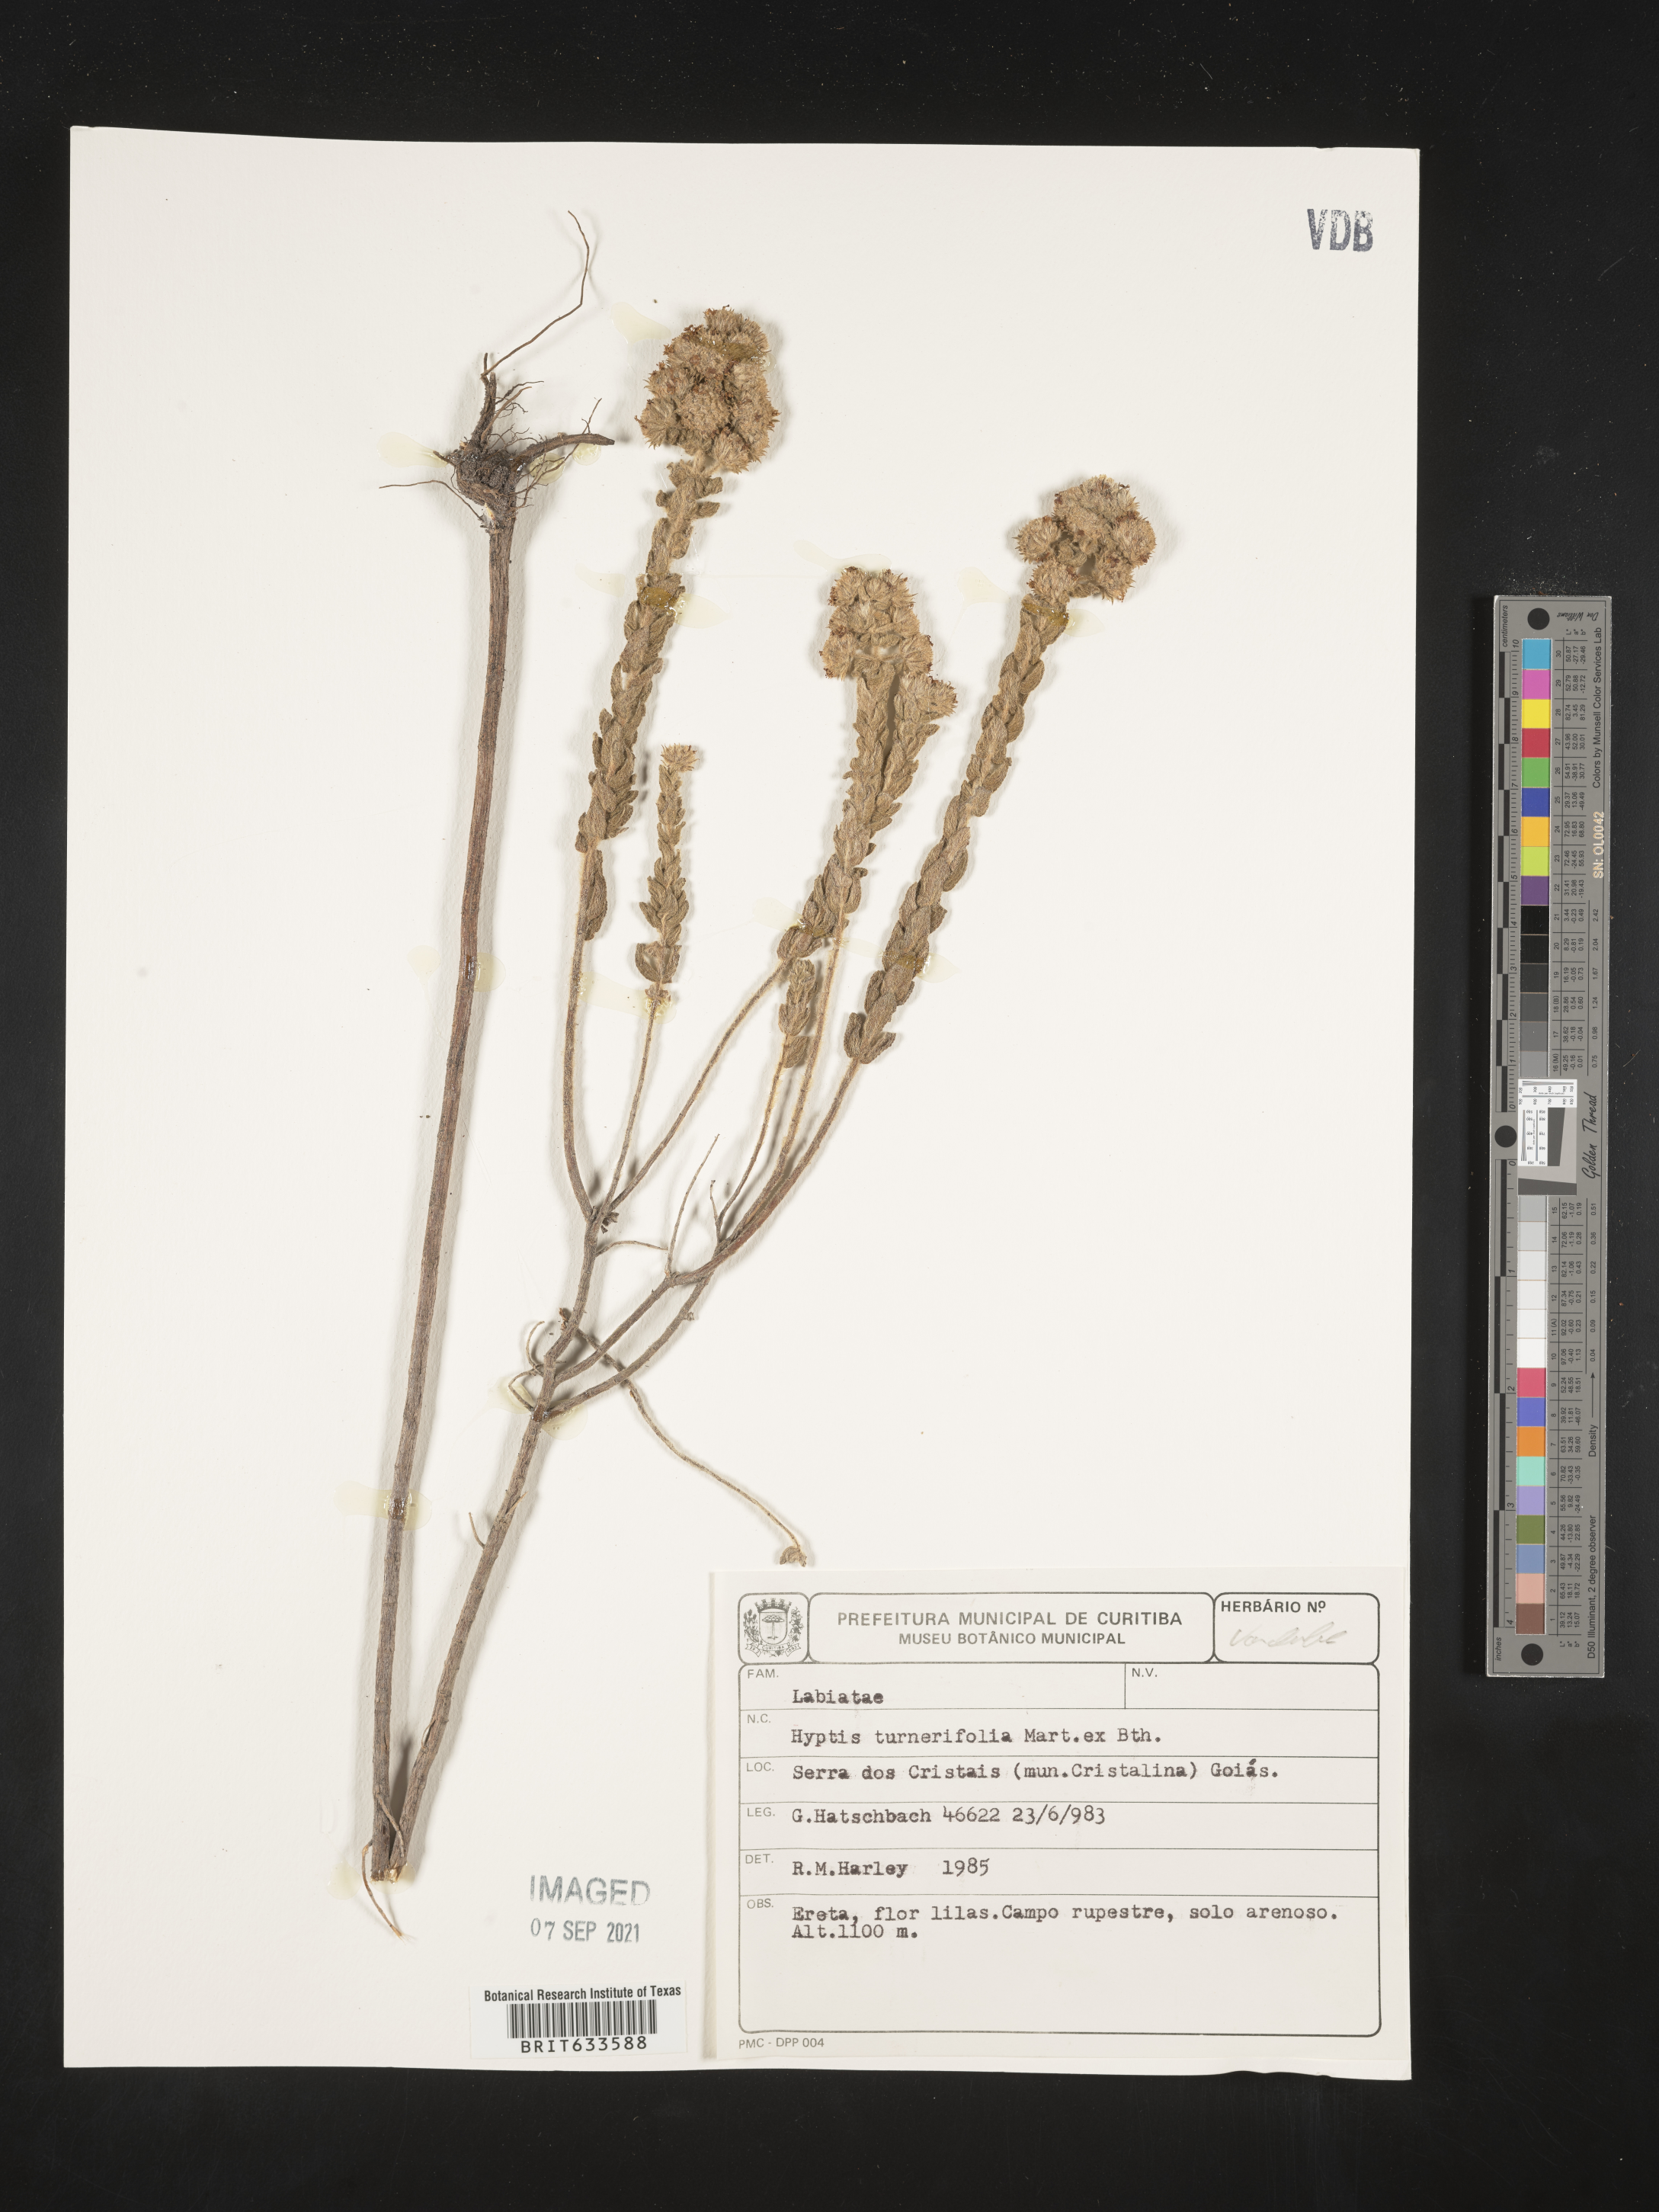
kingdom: Plantae
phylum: Tracheophyta
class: Magnoliopsida
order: Lamiales
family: Lamiaceae
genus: Hyptis
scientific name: Hyptis
